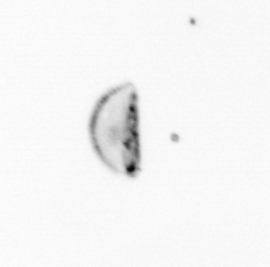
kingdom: Chromista
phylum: Ochrophyta
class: Bacillariophyceae
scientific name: Bacillariophyceae
